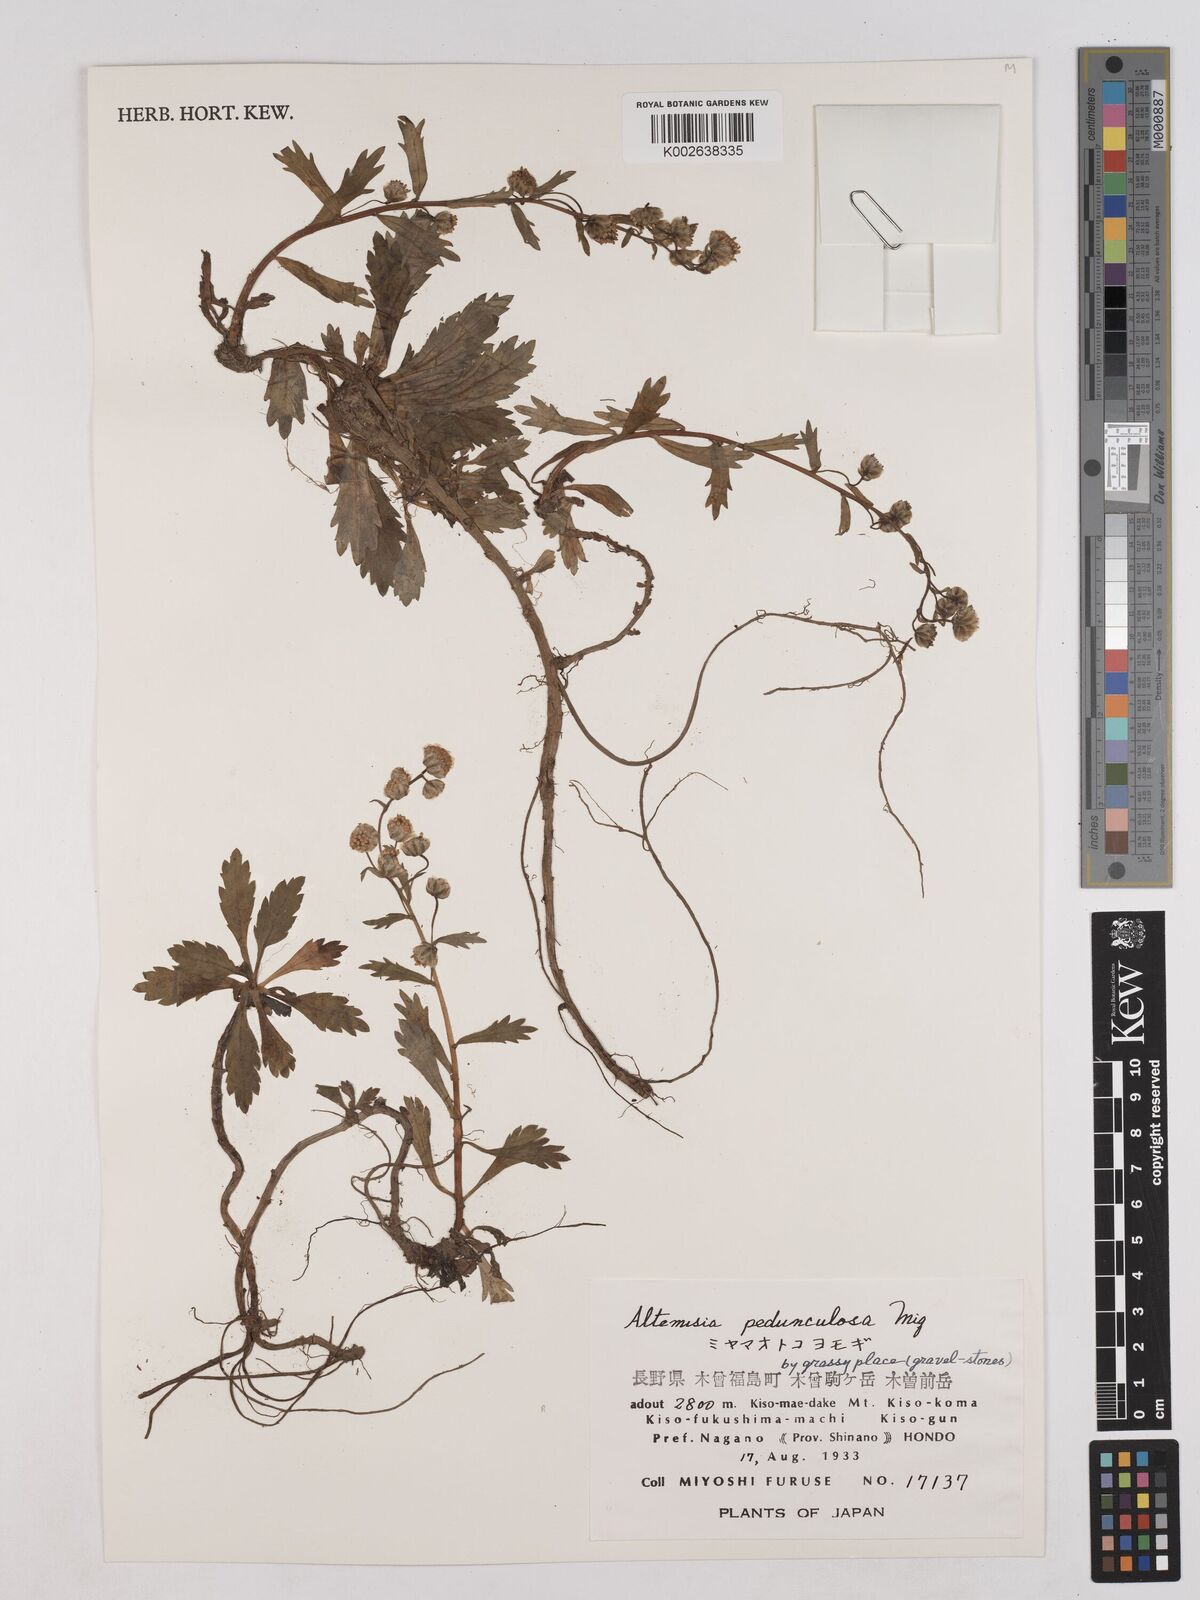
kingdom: Plantae
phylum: Tracheophyta
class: Magnoliopsida
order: Asterales
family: Asteraceae
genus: Artemisia
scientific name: Artemisia pedunculosa
